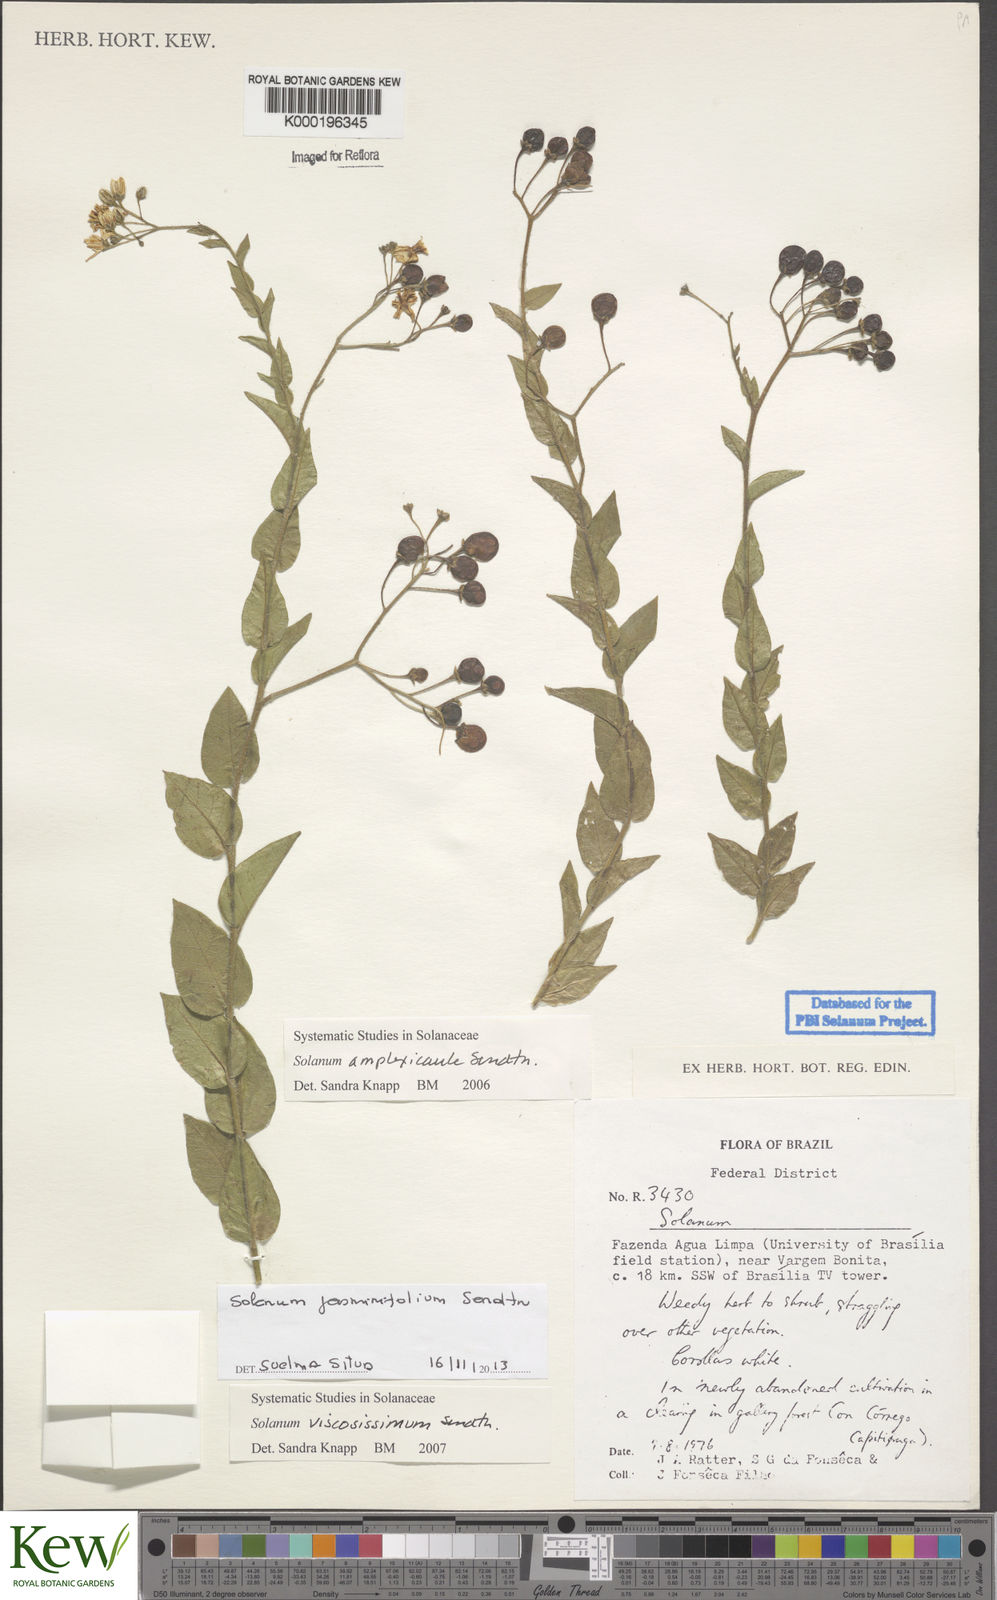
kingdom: Plantae
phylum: Tracheophyta
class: Magnoliopsida
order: Solanales
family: Solanaceae
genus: Solanum
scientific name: Solanum viscosissimum
